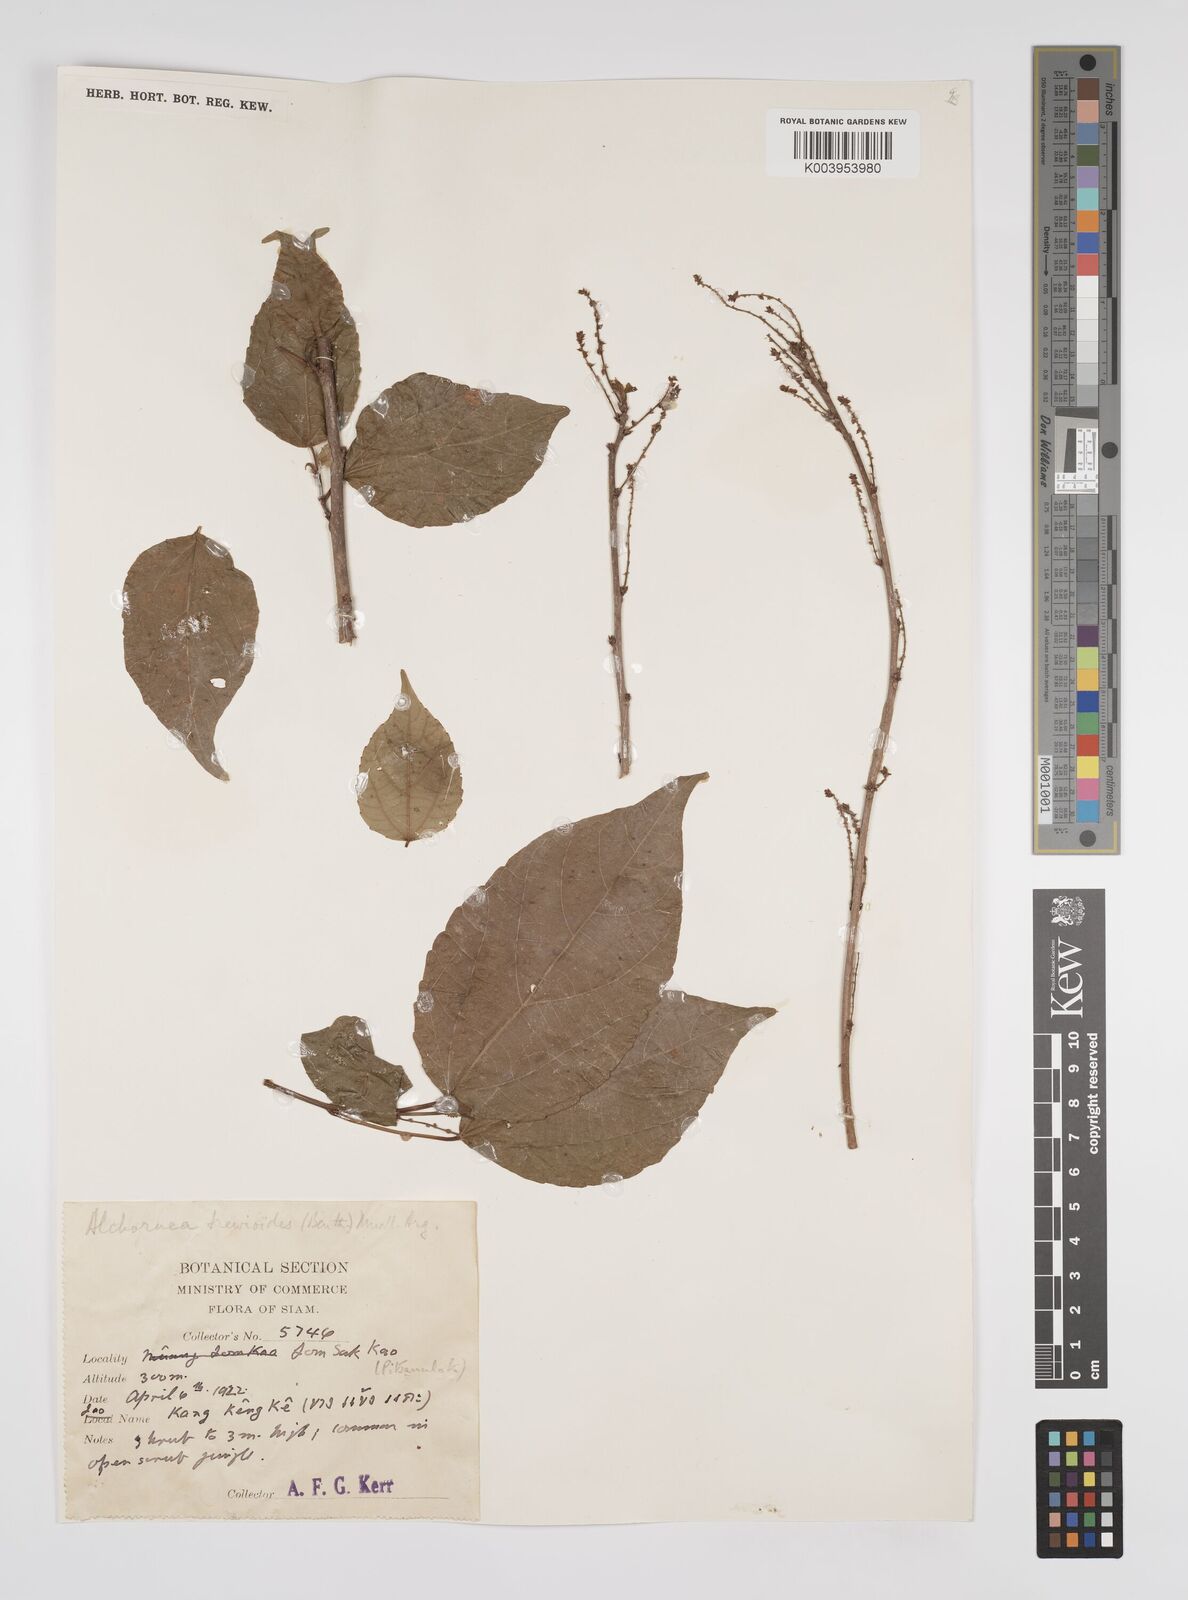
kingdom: Plantae
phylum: Tracheophyta
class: Magnoliopsida
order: Malpighiales
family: Euphorbiaceae
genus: Alchornea
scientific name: Alchornea trewioides
